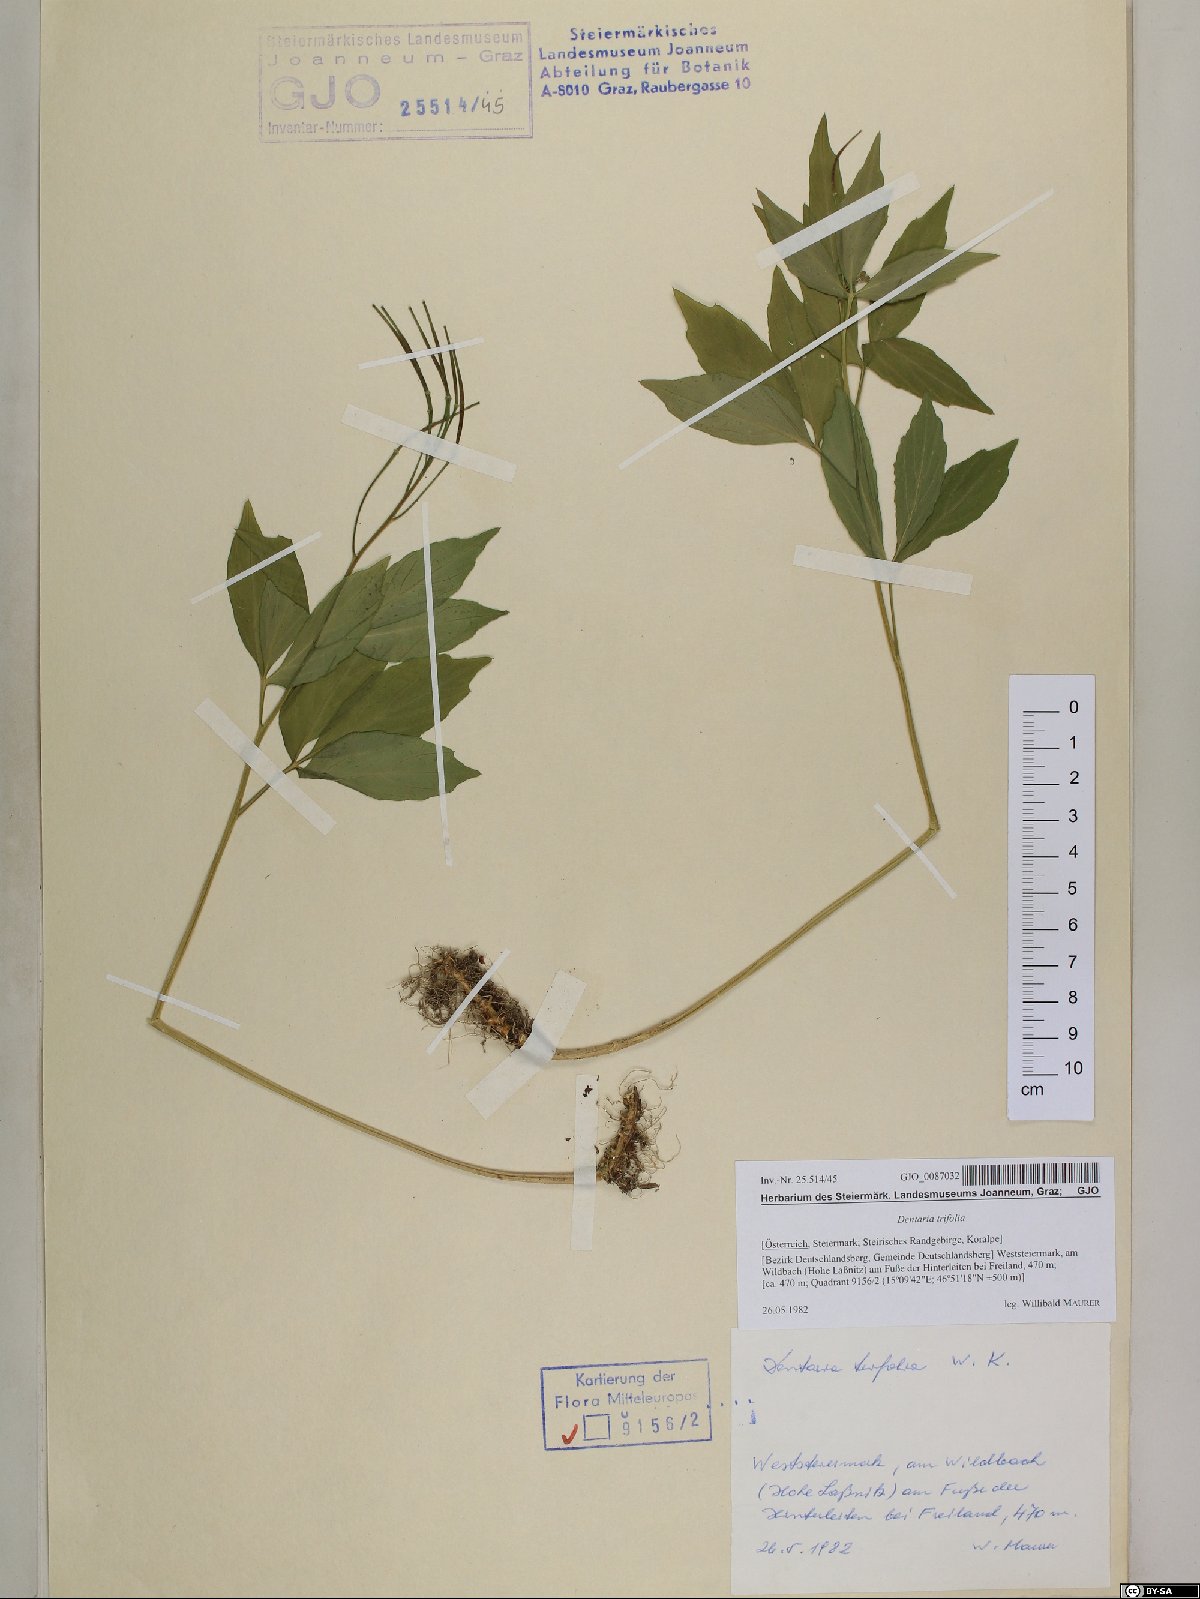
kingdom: Plantae
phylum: Tracheophyta
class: Magnoliopsida
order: Brassicales
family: Brassicaceae
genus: Cardamine
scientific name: Cardamine waldsteinii
